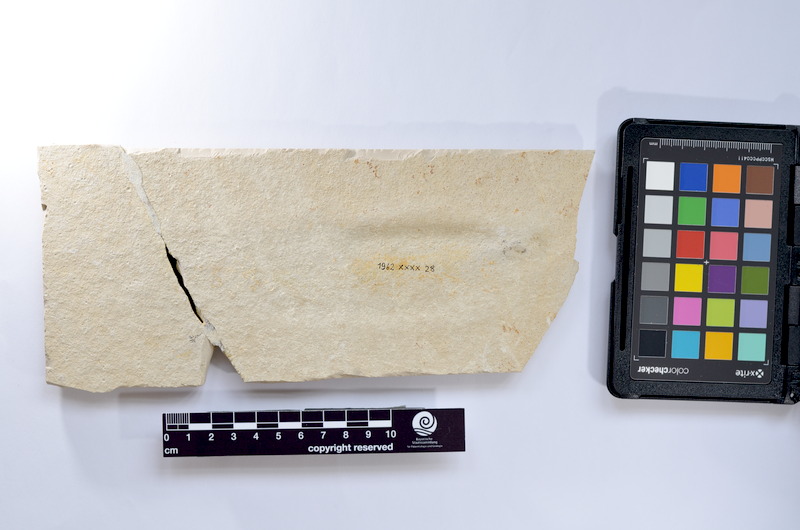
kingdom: Animalia
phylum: Chordata
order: Elopiformes
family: Anaethalionidae
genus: Anaethalion
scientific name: Anaethalion knorri
